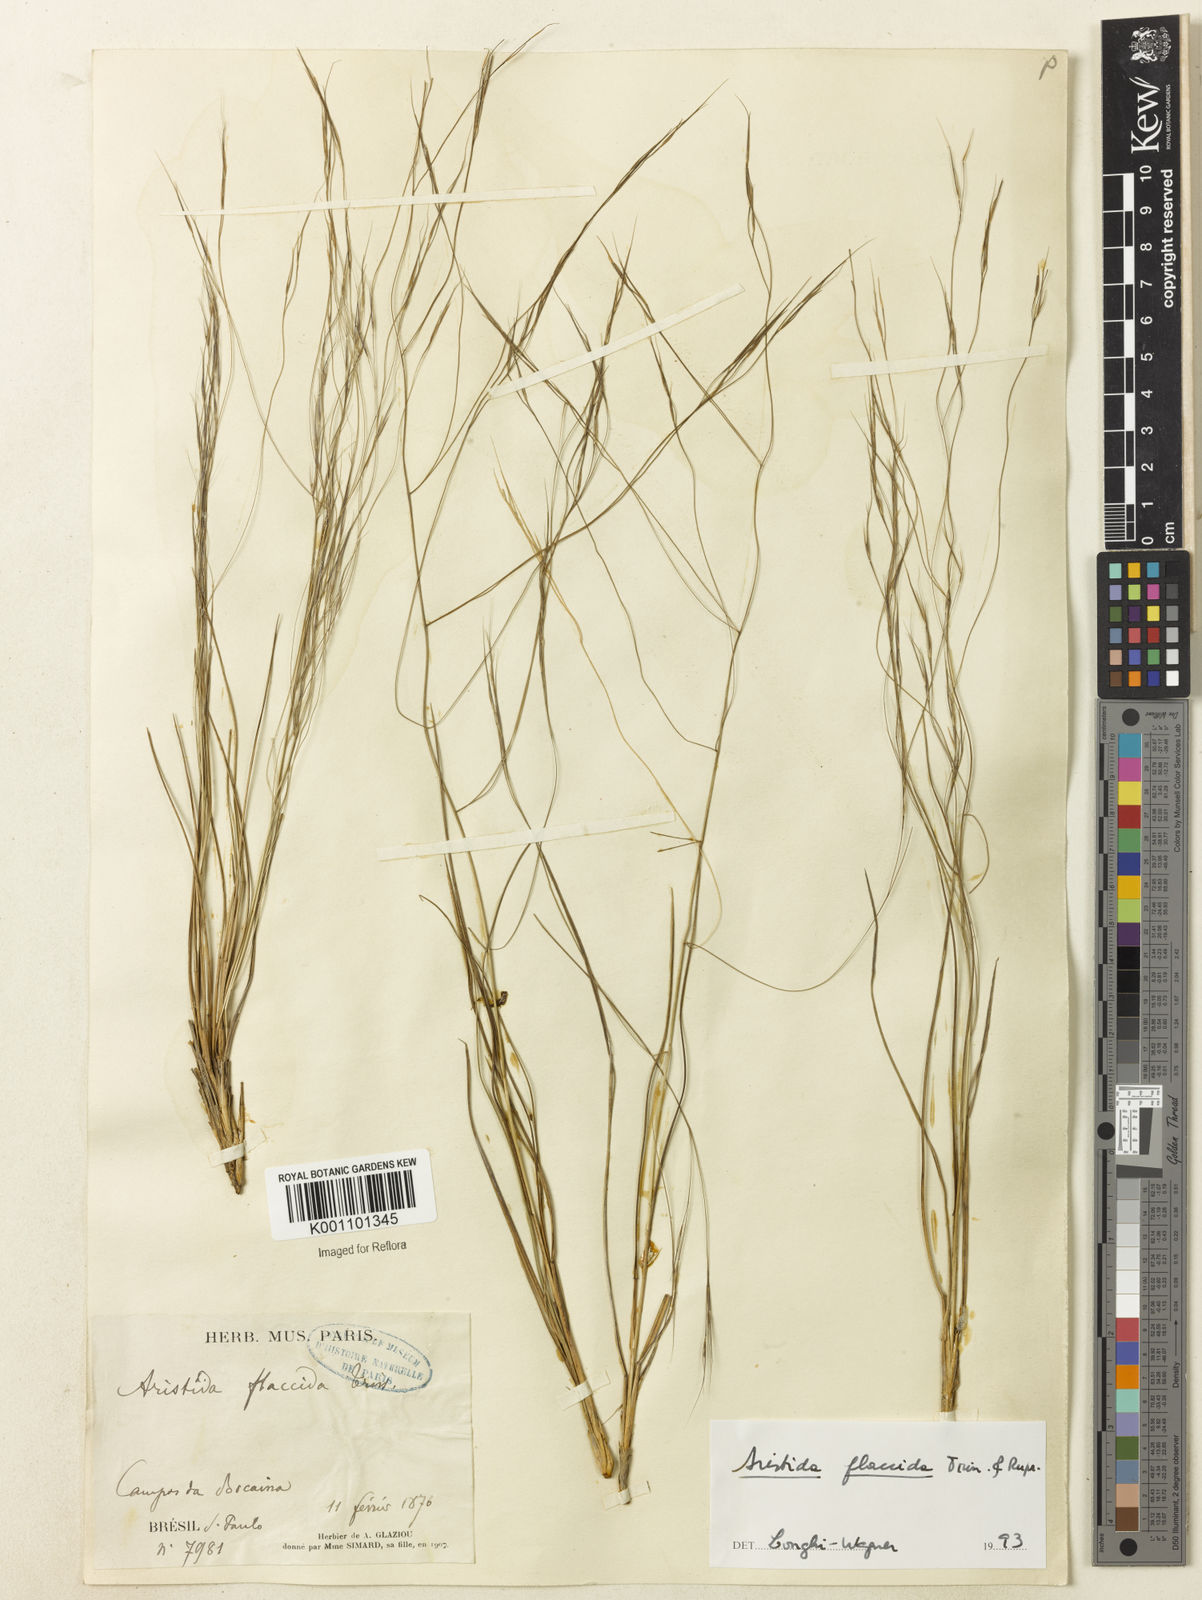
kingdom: Plantae
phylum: Tracheophyta
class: Liliopsida
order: Poales
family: Poaceae
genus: Aristida
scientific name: Aristida flaccida
